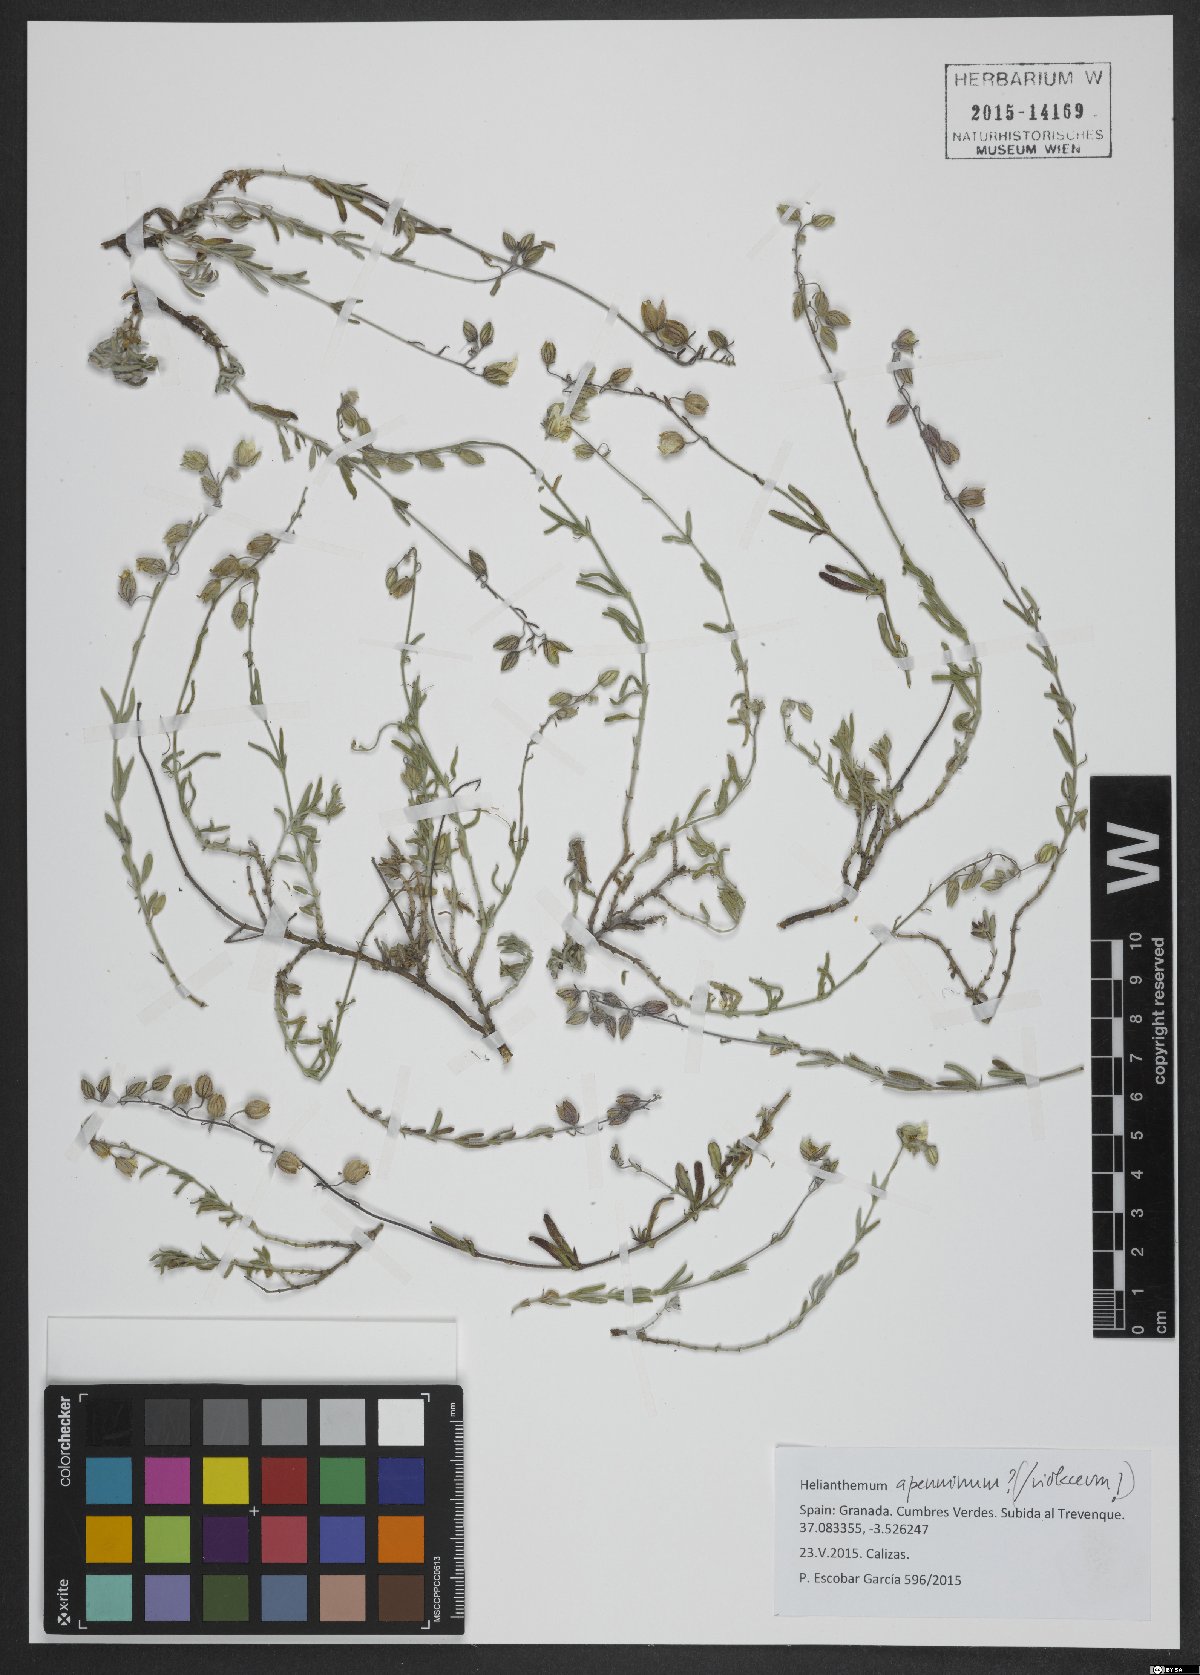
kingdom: Plantae
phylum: Tracheophyta
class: Magnoliopsida
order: Malvales
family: Cistaceae
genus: Helianthemum
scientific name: Helianthemum apenninum
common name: White rock-rose
